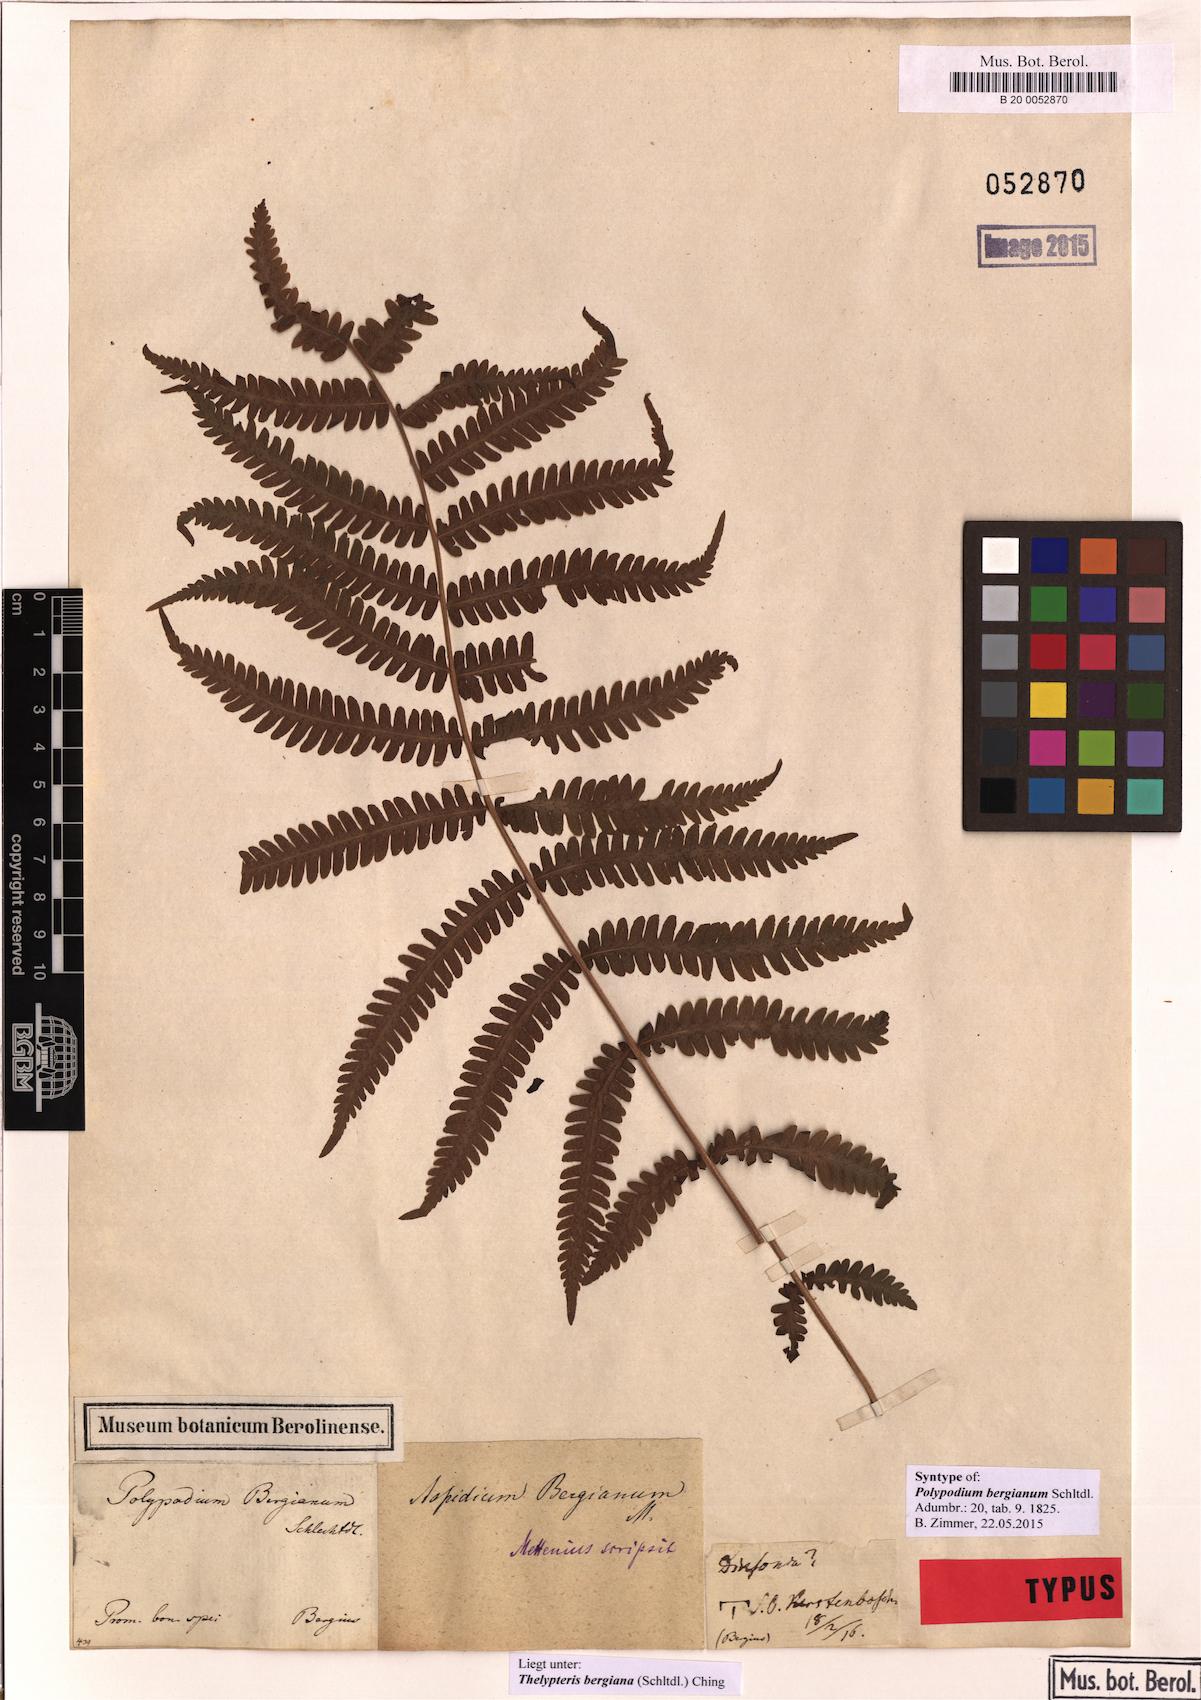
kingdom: Plantae
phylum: Tracheophyta
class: Polypodiopsida
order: Polypodiales
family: Thelypteridaceae
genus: Amauropelta
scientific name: Amauropelta bergiana
